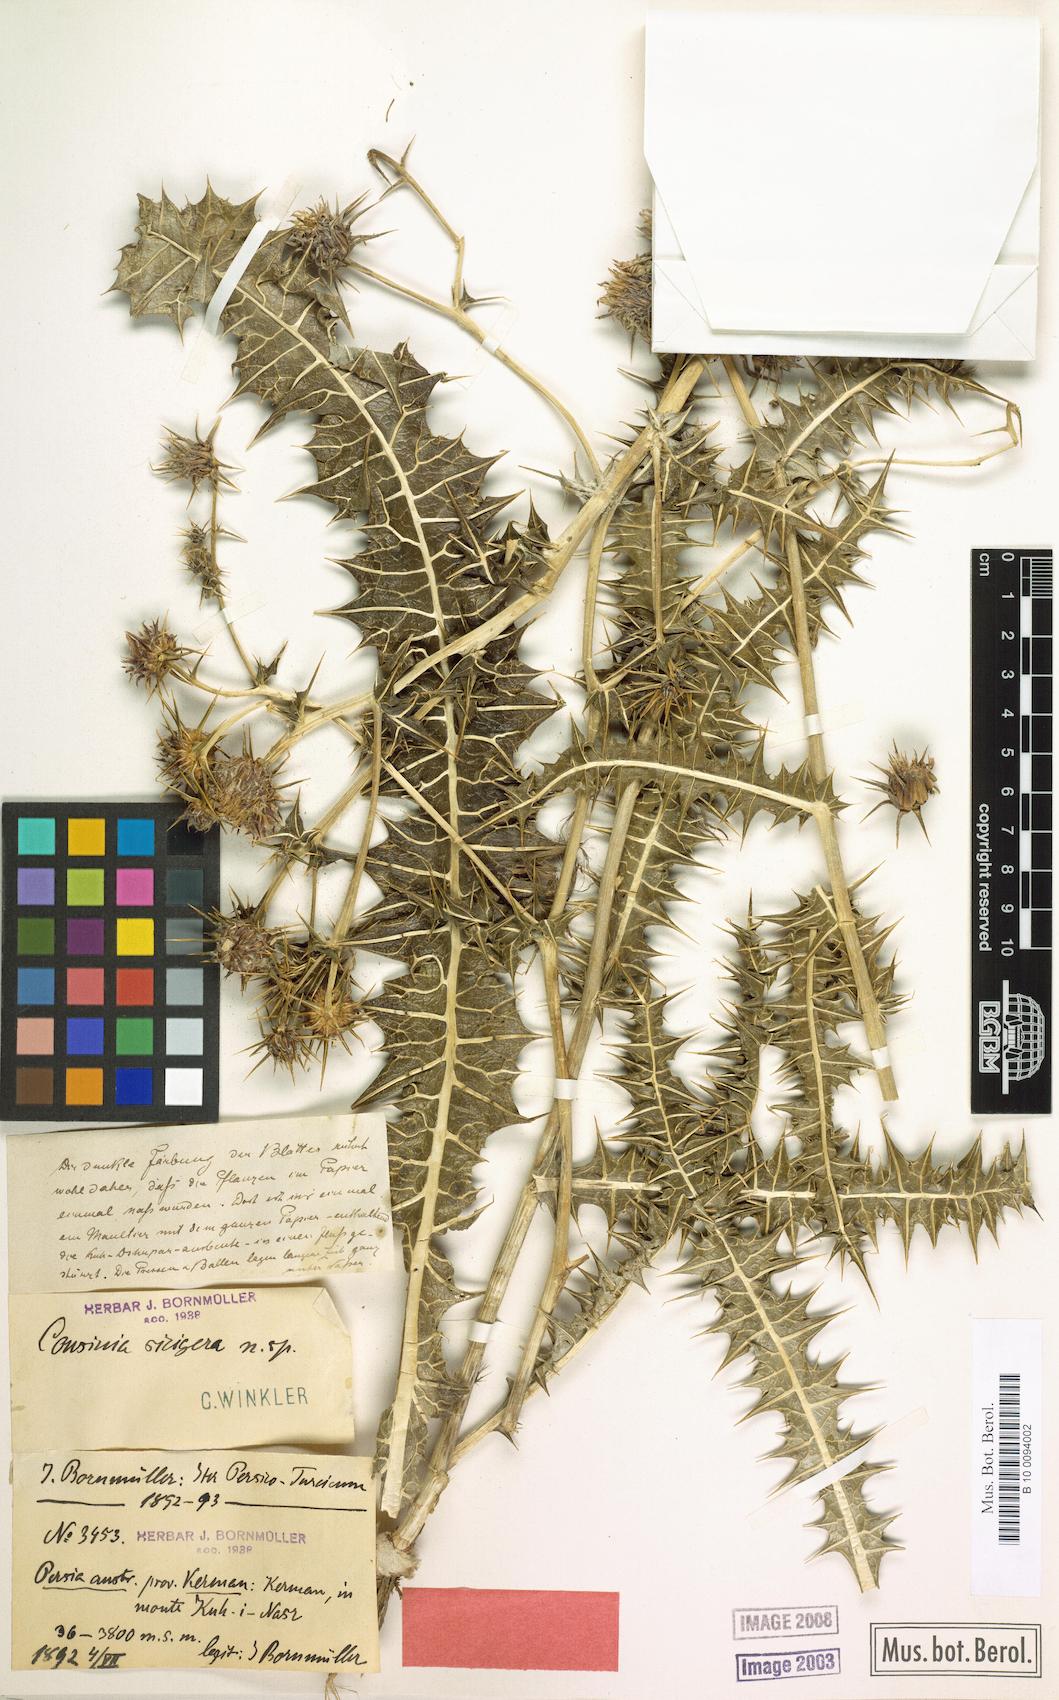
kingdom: Plantae
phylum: Tracheophyta
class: Magnoliopsida
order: Asterales
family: Asteraceae
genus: Cousinia
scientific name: Cousinia sicigera
